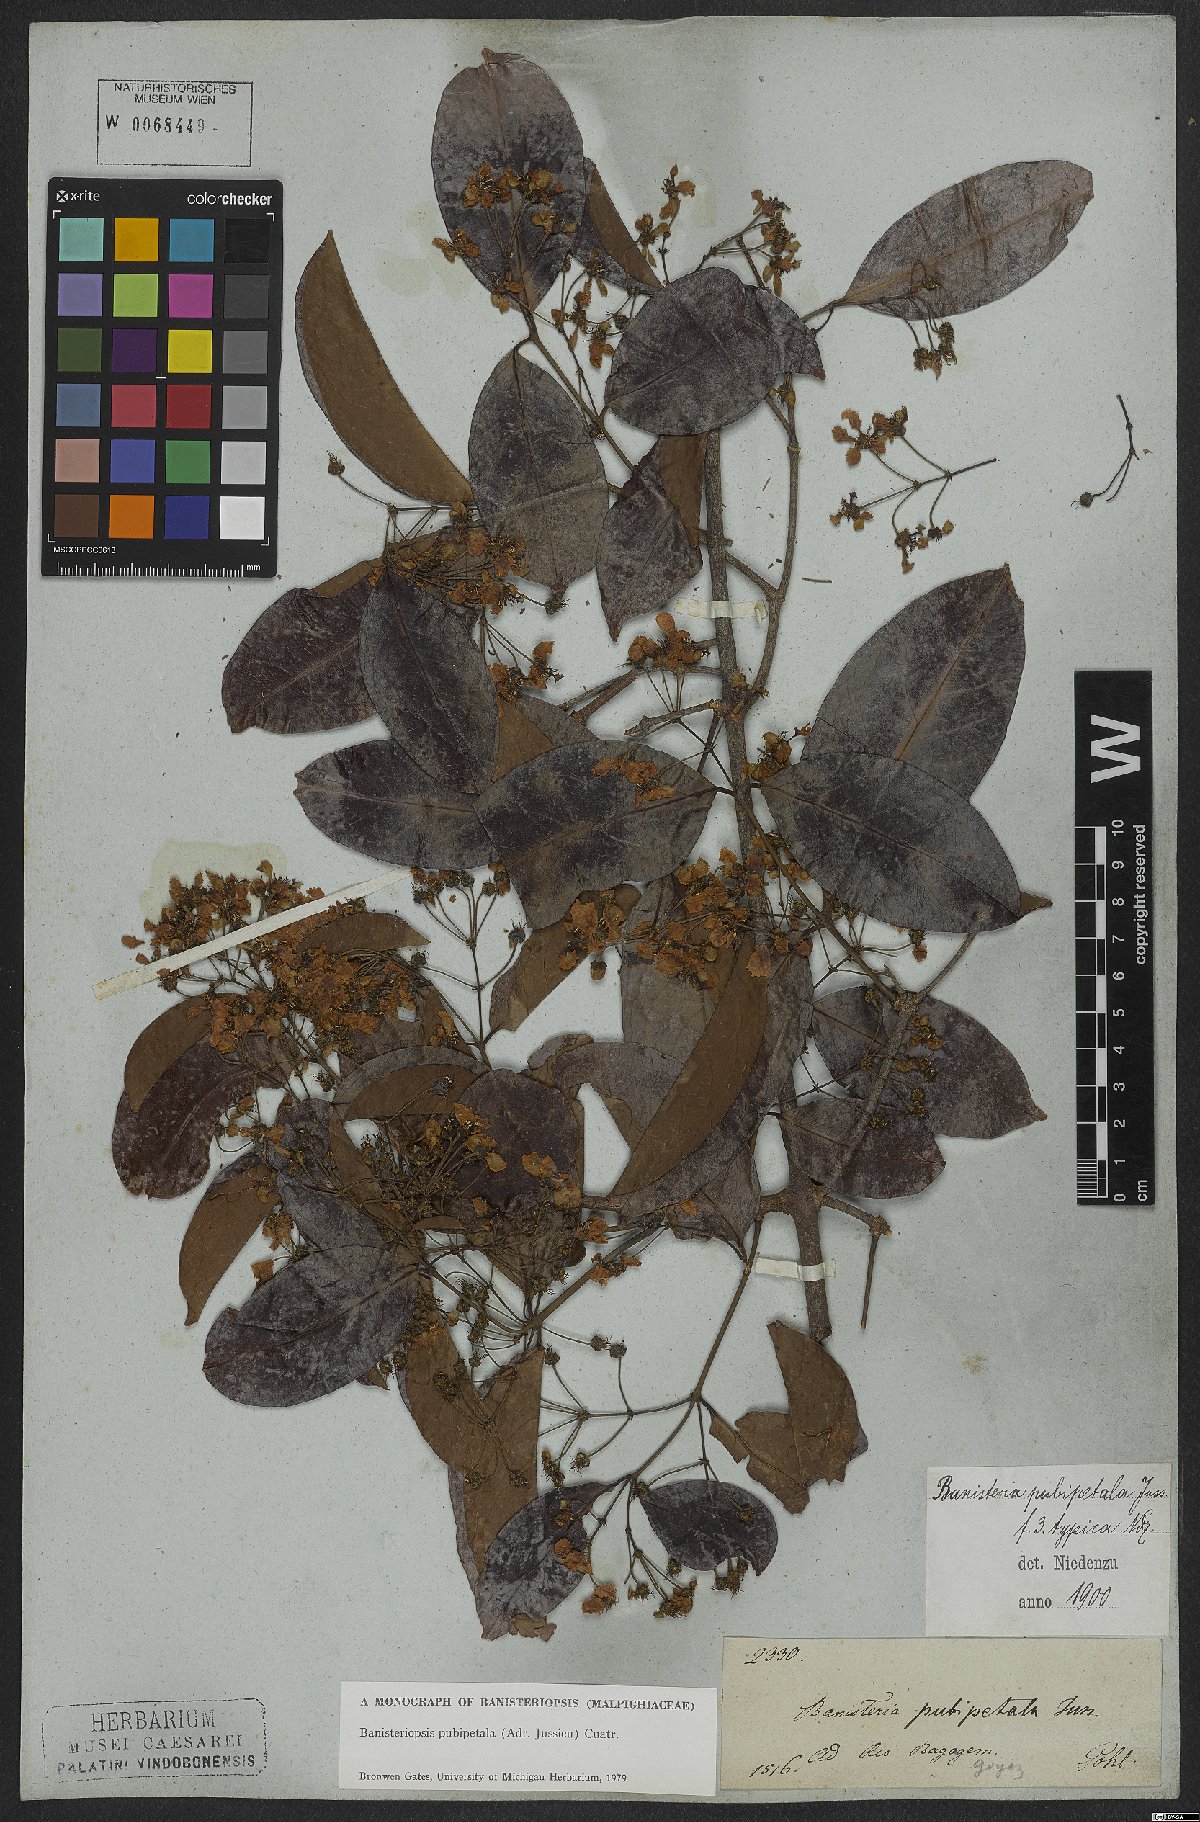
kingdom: Plantae
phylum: Tracheophyta
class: Magnoliopsida
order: Malpighiales
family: Malpighiaceae
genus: Diplopterys
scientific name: Diplopterys pubipetala
